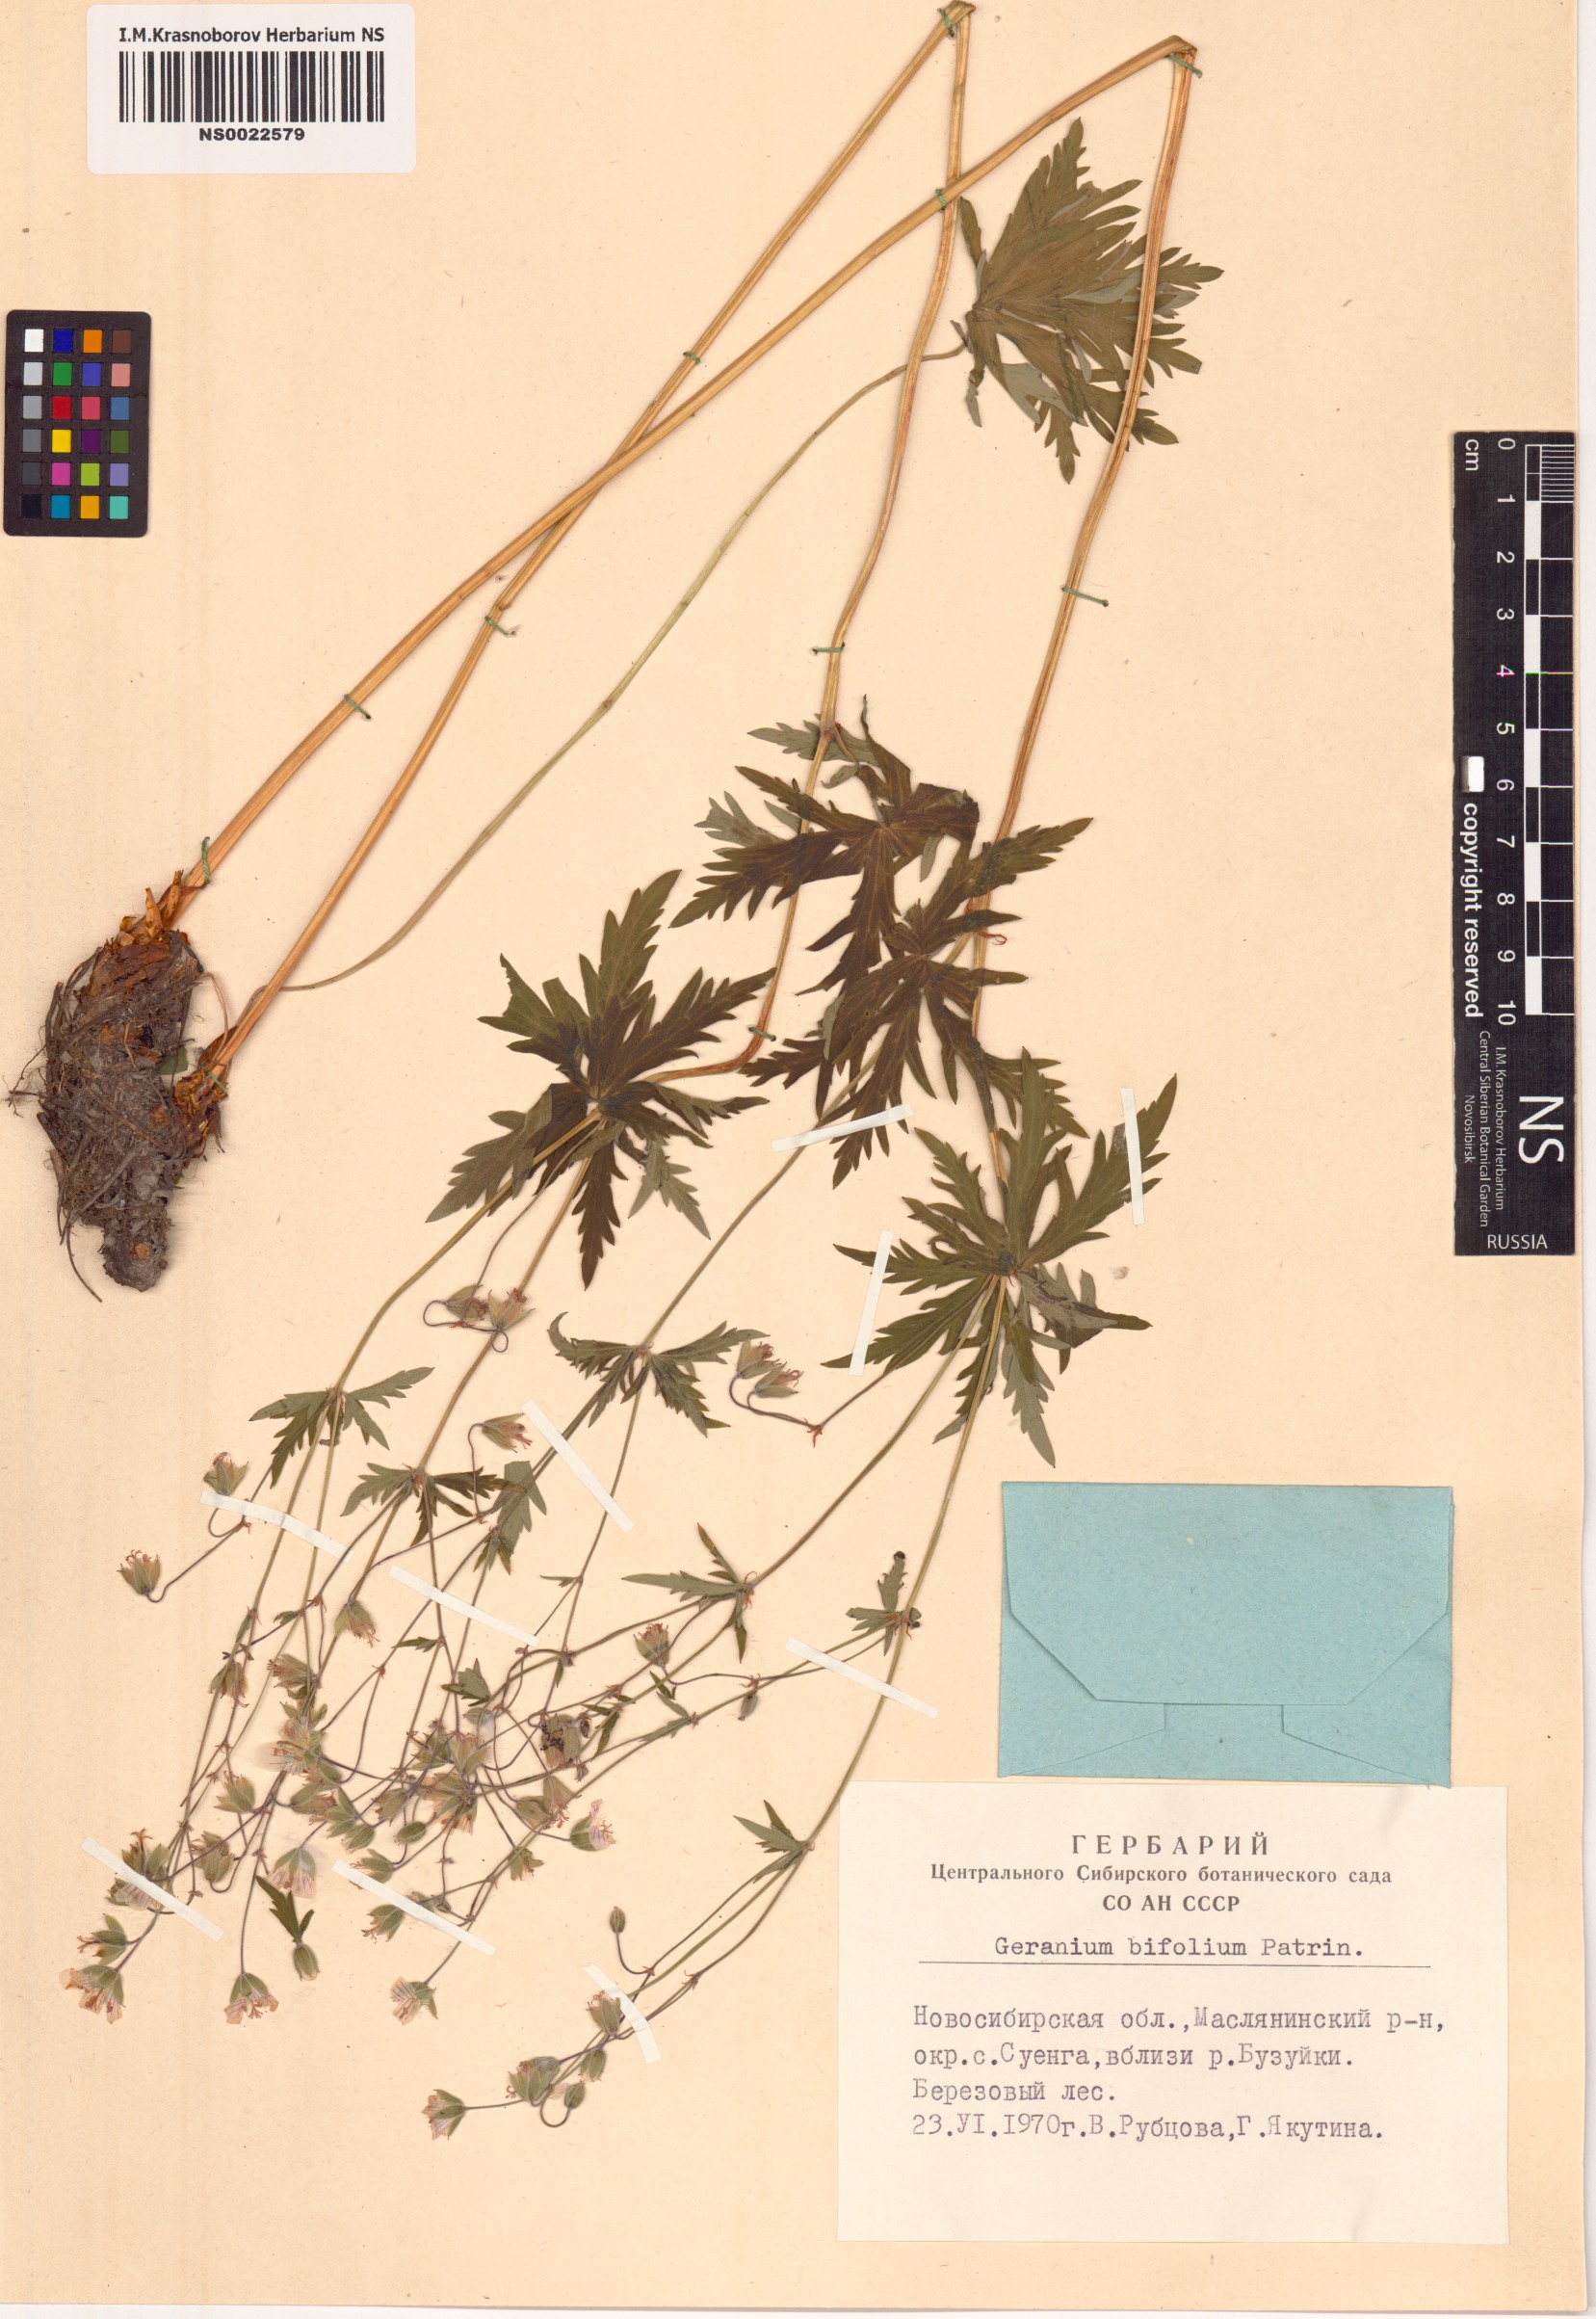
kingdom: Plantae
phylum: Tracheophyta
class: Magnoliopsida
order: Geraniales
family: Geraniaceae
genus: Geranium
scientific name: Geranium pseudosibiricum
